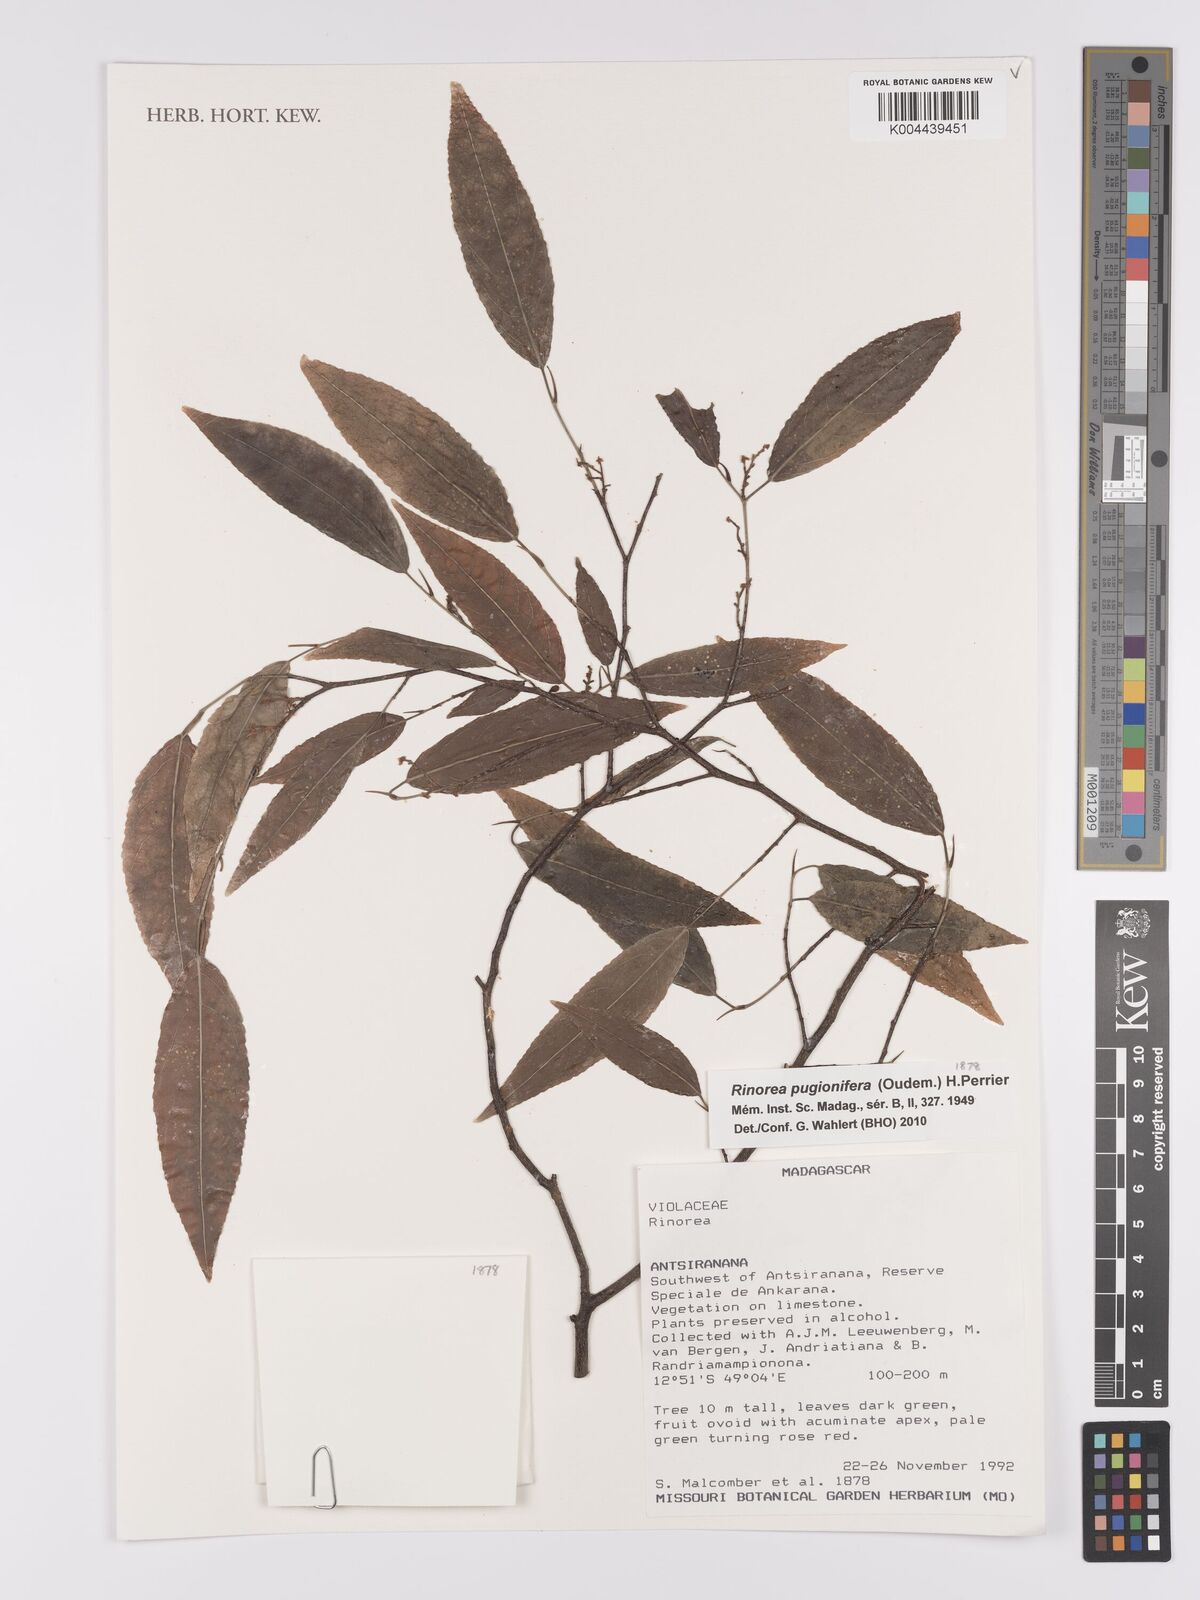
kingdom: Plantae
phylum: Tracheophyta
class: Magnoliopsida
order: Malpighiales
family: Violaceae
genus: Rinorea
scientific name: Rinorea pugionifera
